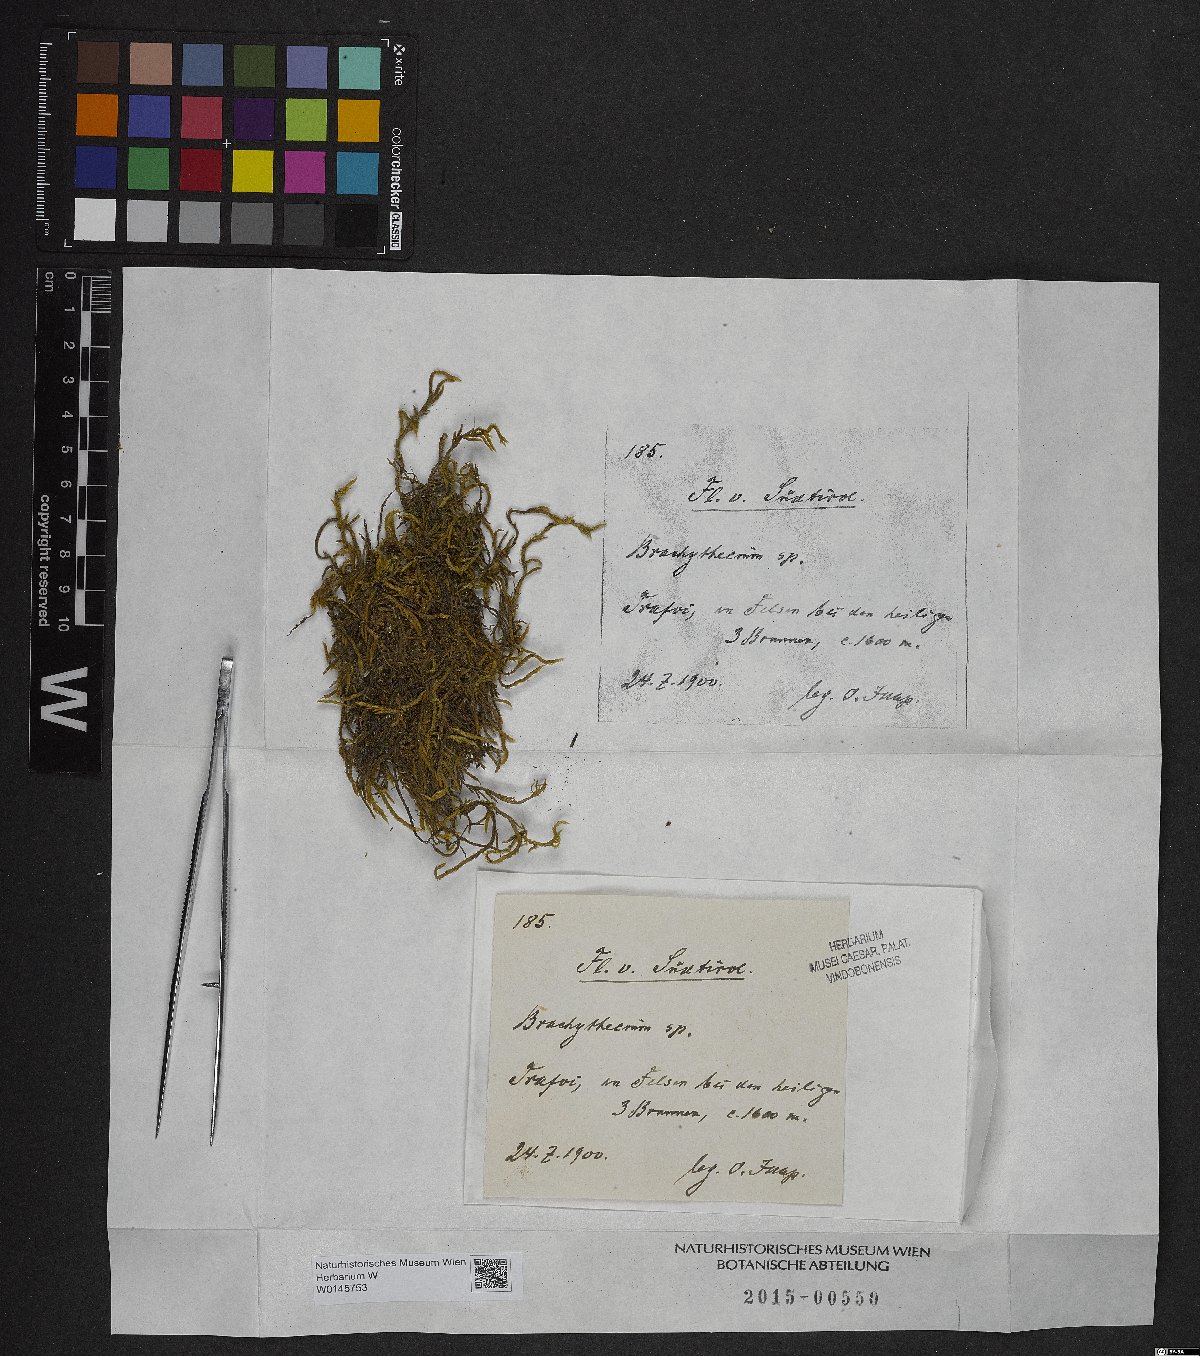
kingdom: Plantae
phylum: Bryophyta
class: Bryopsida
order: Hypnales
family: Brachytheciaceae
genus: Brachythecium
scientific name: Brachythecium
